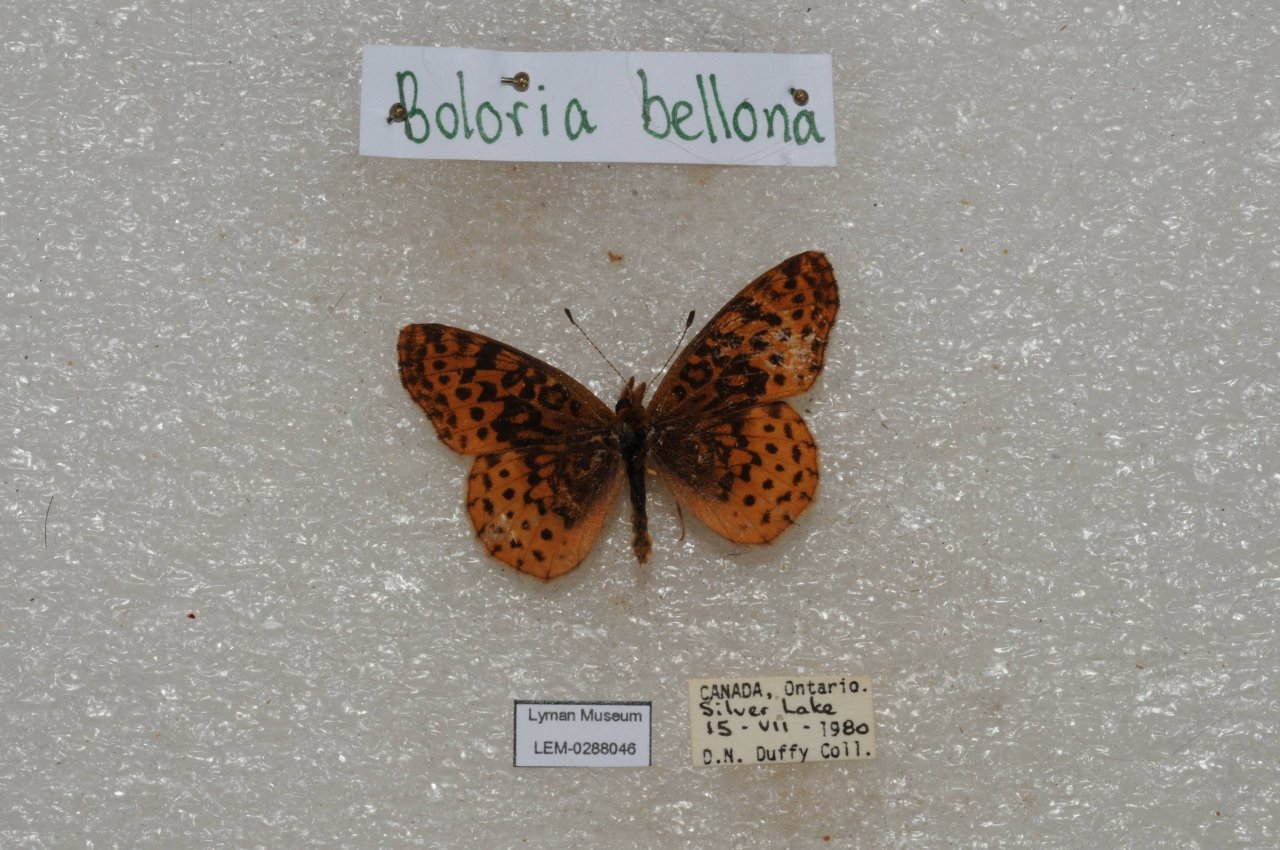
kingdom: Animalia
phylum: Arthropoda
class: Insecta
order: Lepidoptera
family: Nymphalidae
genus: Clossiana
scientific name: Clossiana toddi
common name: Meadow Fritillary
